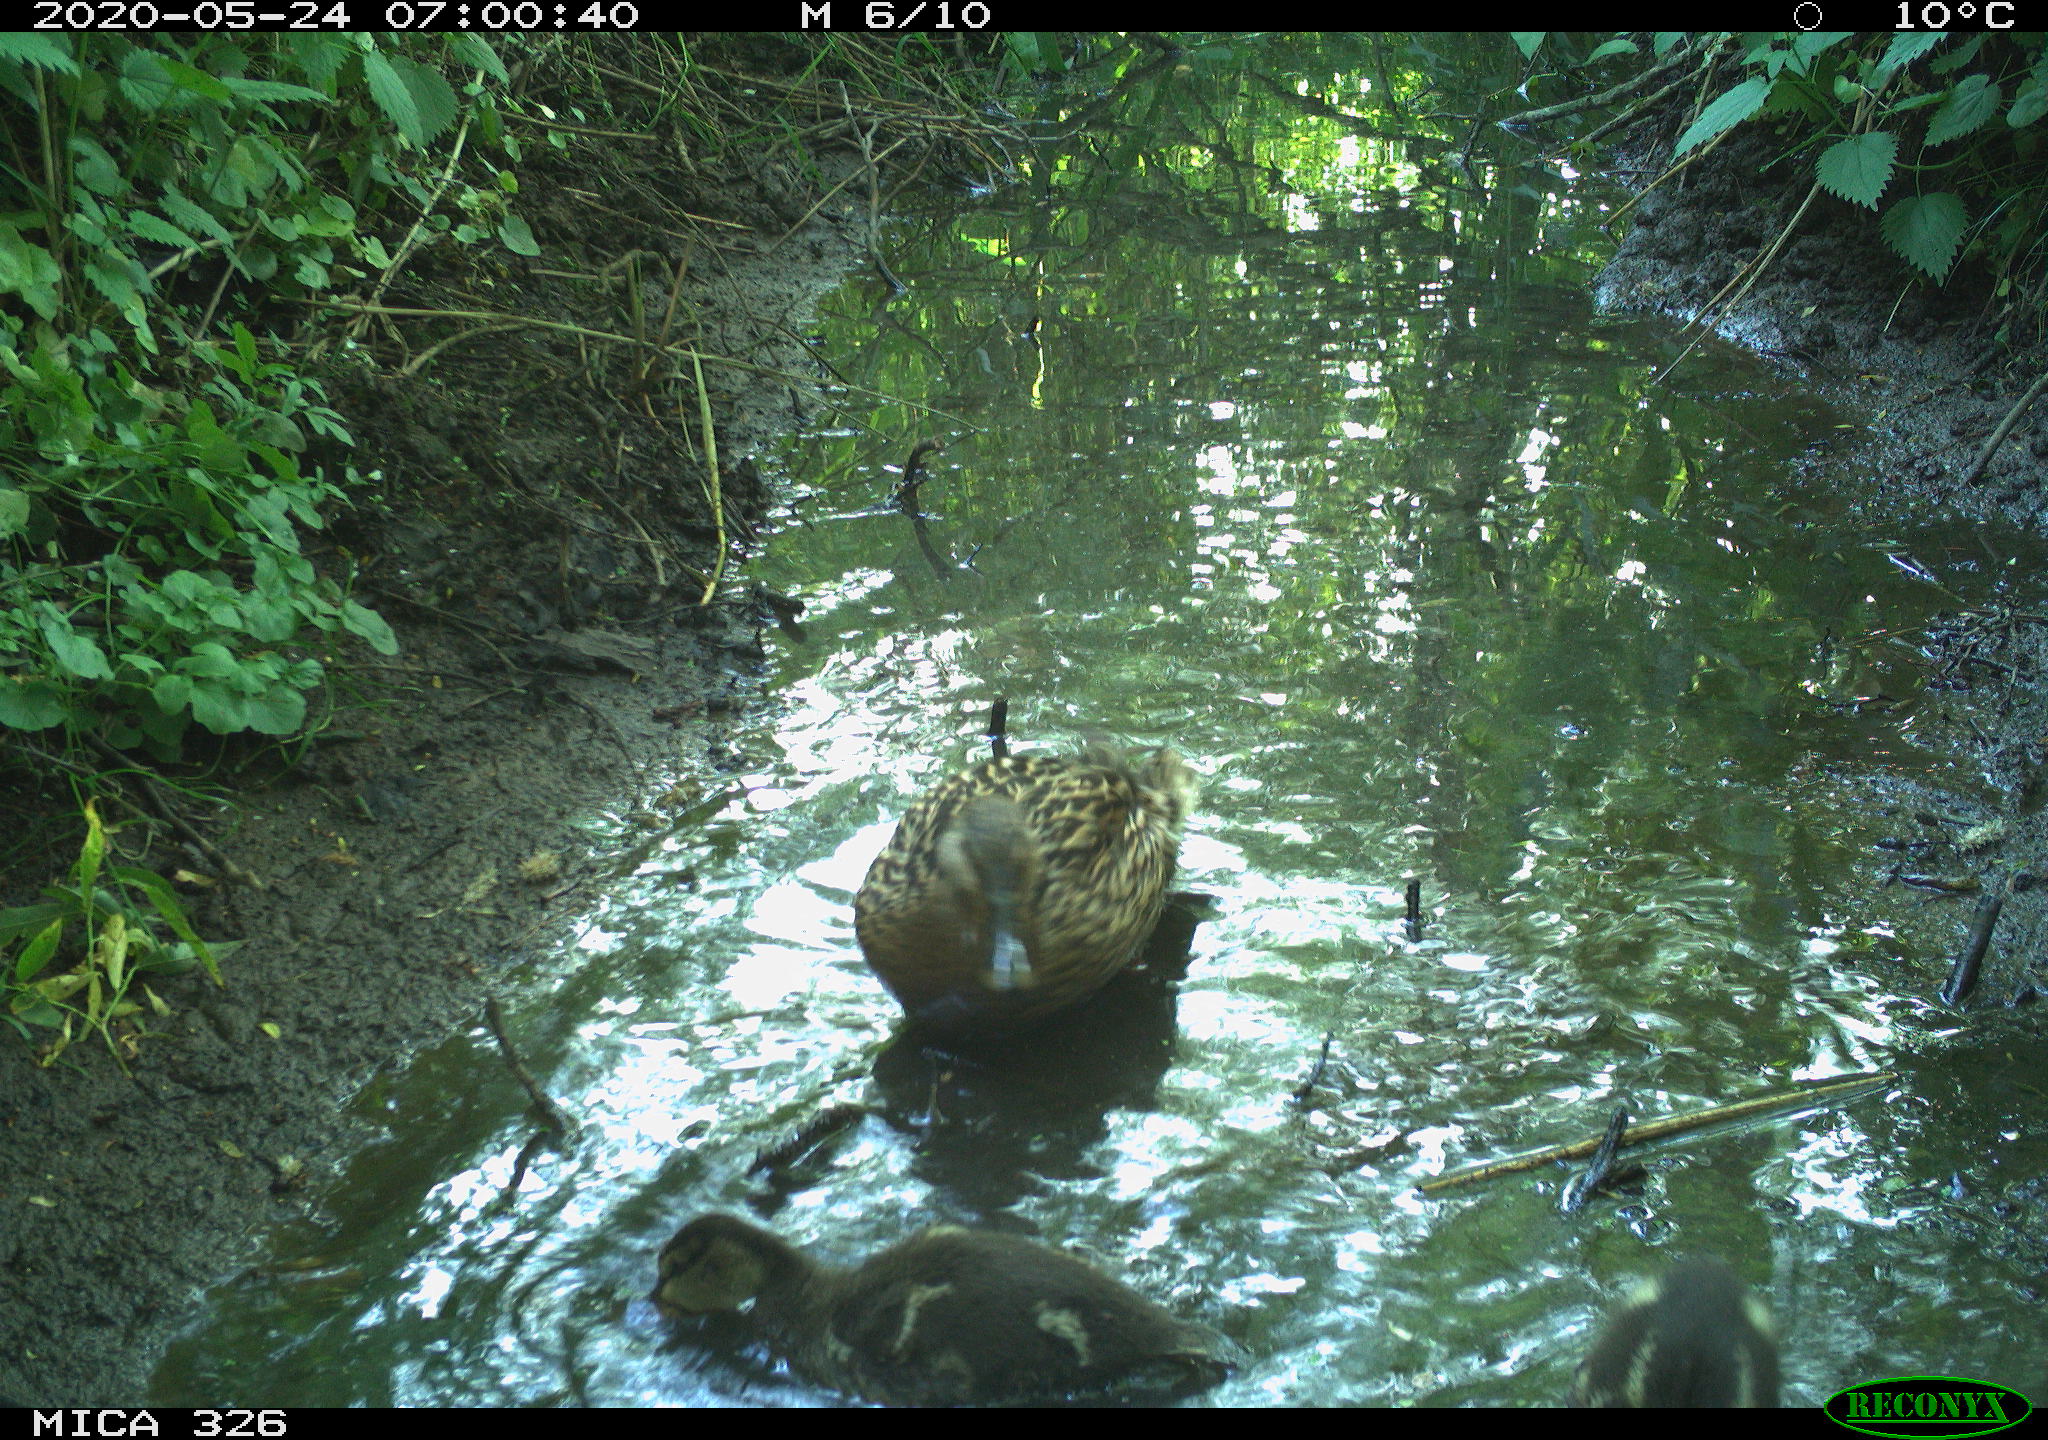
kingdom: Animalia
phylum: Chordata
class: Aves
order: Anseriformes
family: Anatidae
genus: Anas
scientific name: Anas platyrhynchos
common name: Mallard
